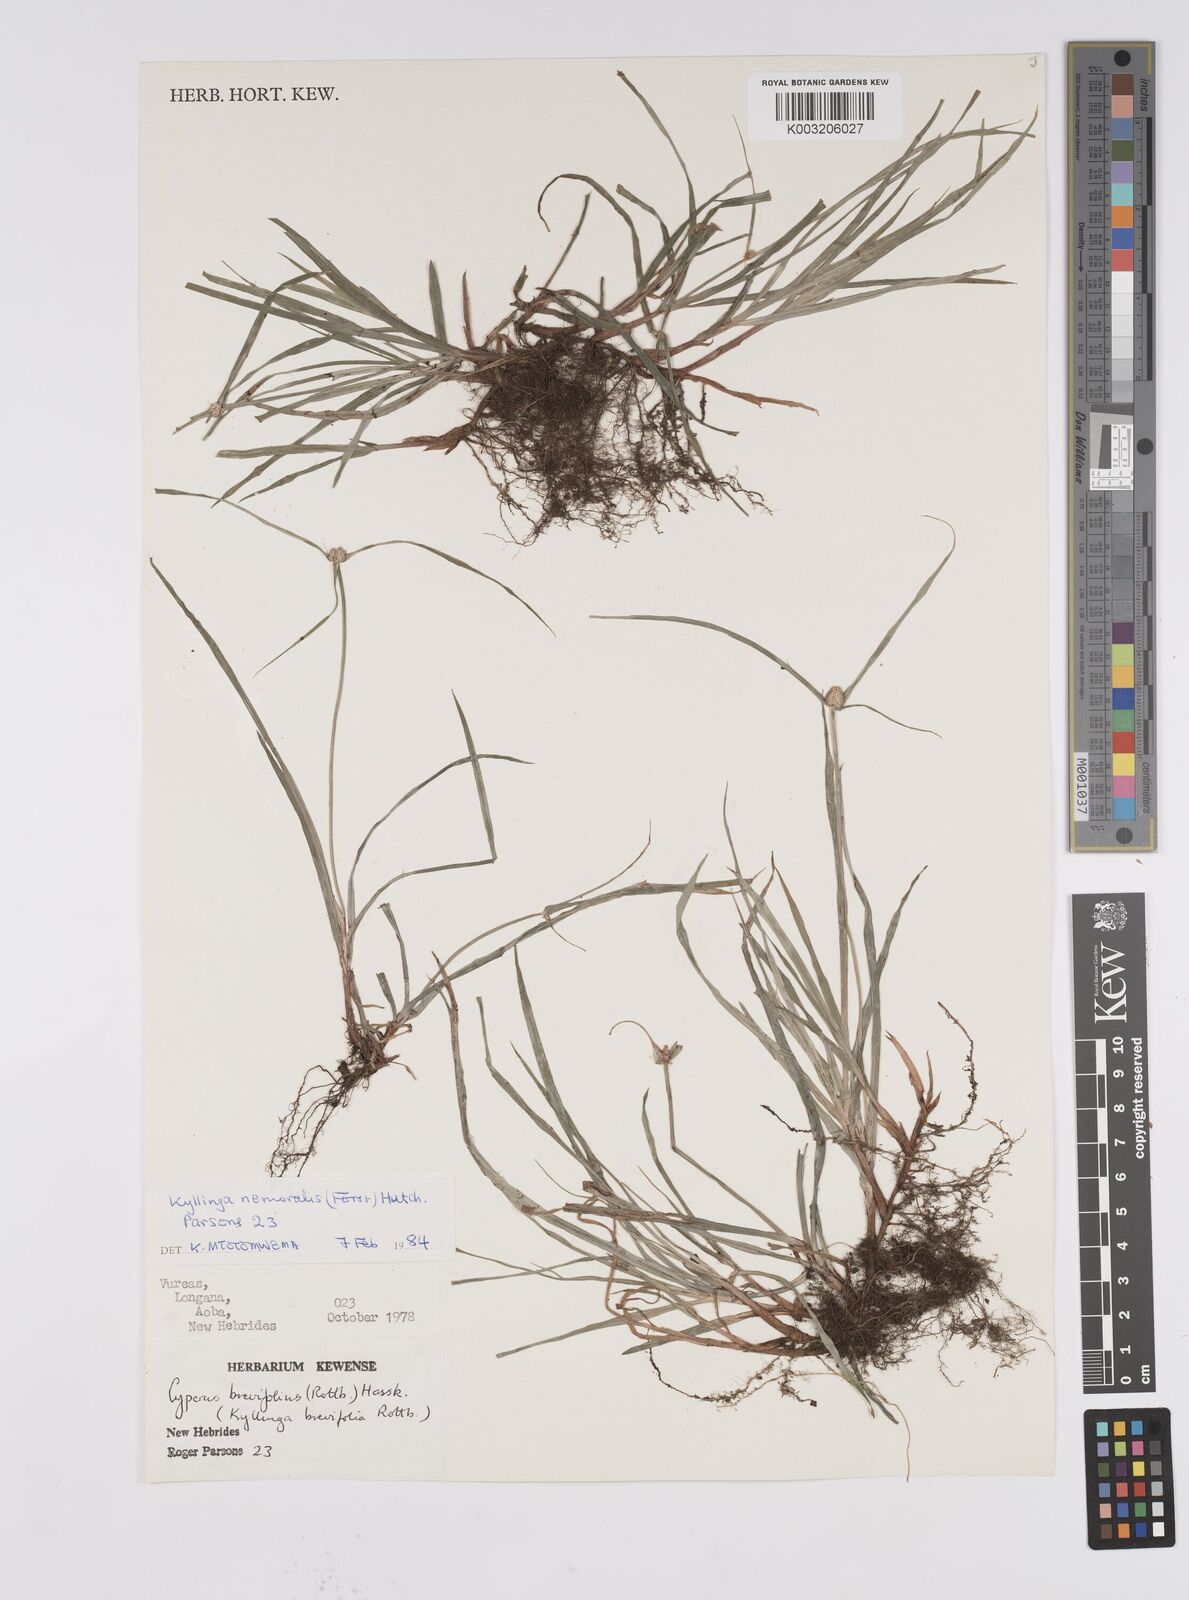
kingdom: Plantae
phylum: Tracheophyta
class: Liliopsida
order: Poales
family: Cyperaceae
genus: Cyperus
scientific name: Cyperus brevifolius
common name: Globe kyllinga
